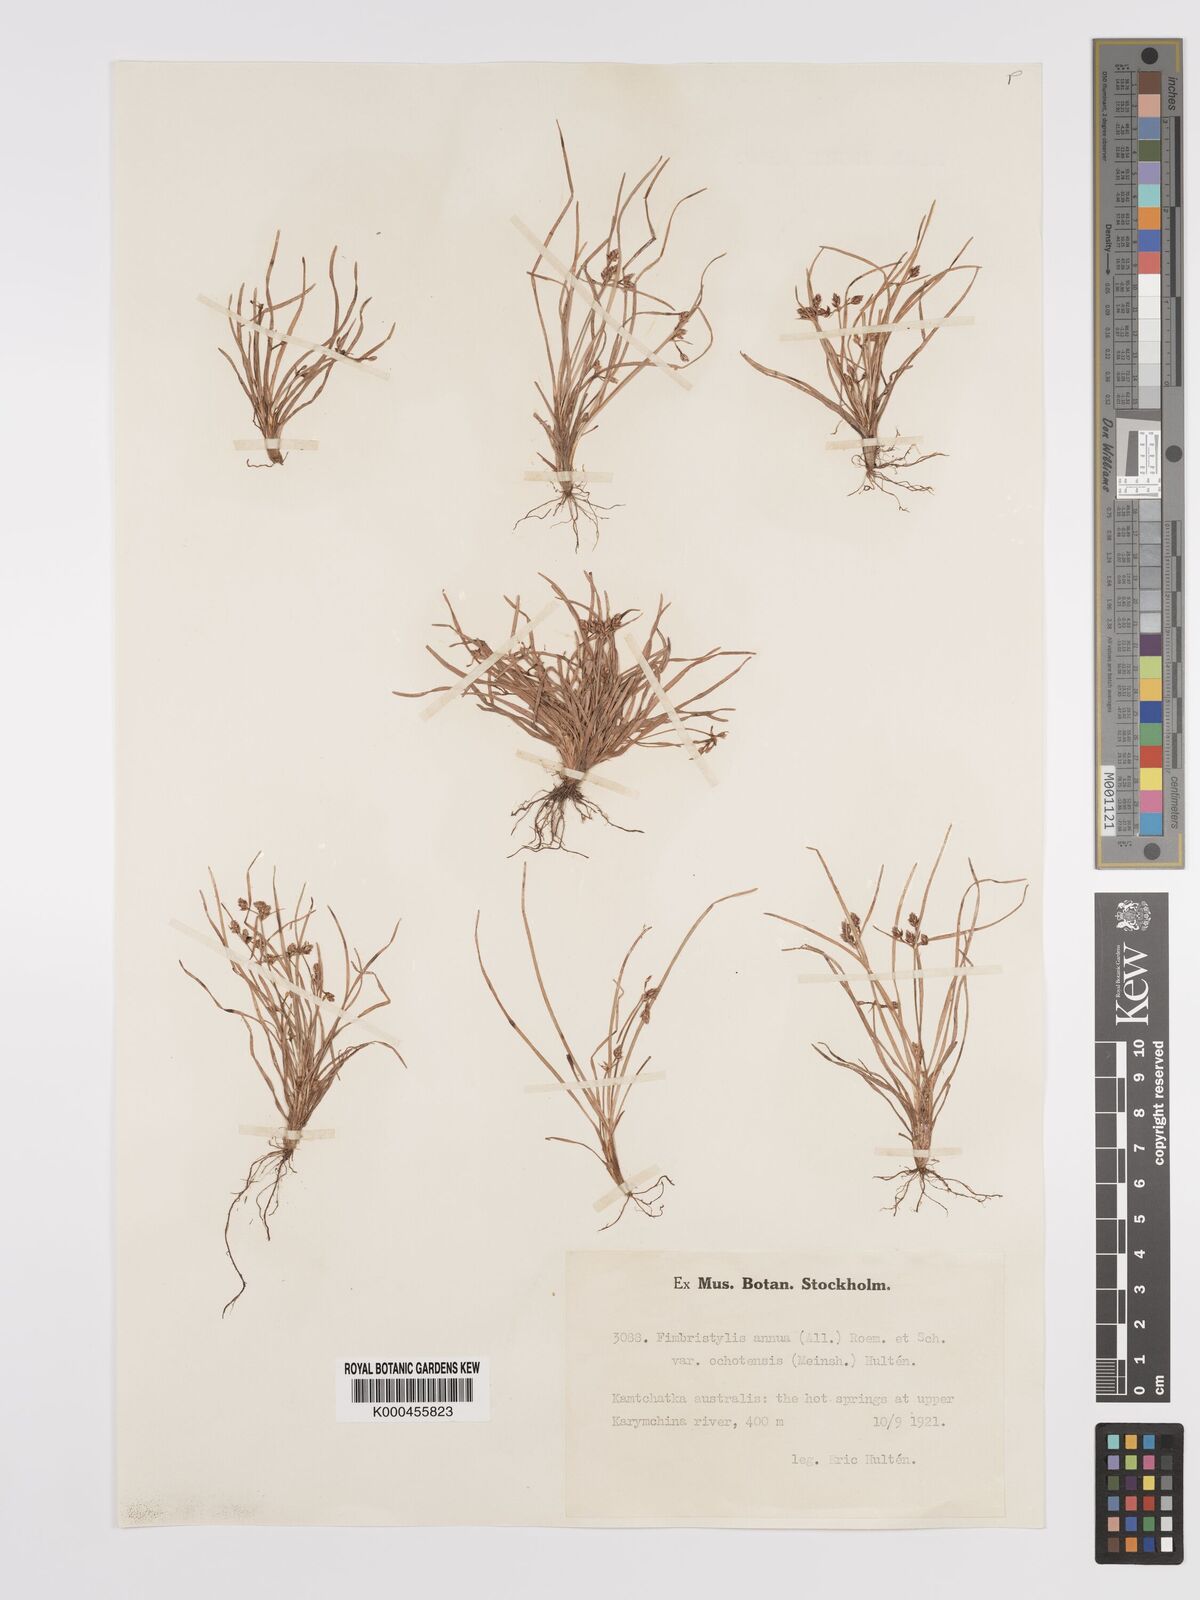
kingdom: Plantae
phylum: Tracheophyta
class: Liliopsida
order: Poales
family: Cyperaceae
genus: Fimbristylis
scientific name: Fimbristylis dichotoma
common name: Forked fimbry
